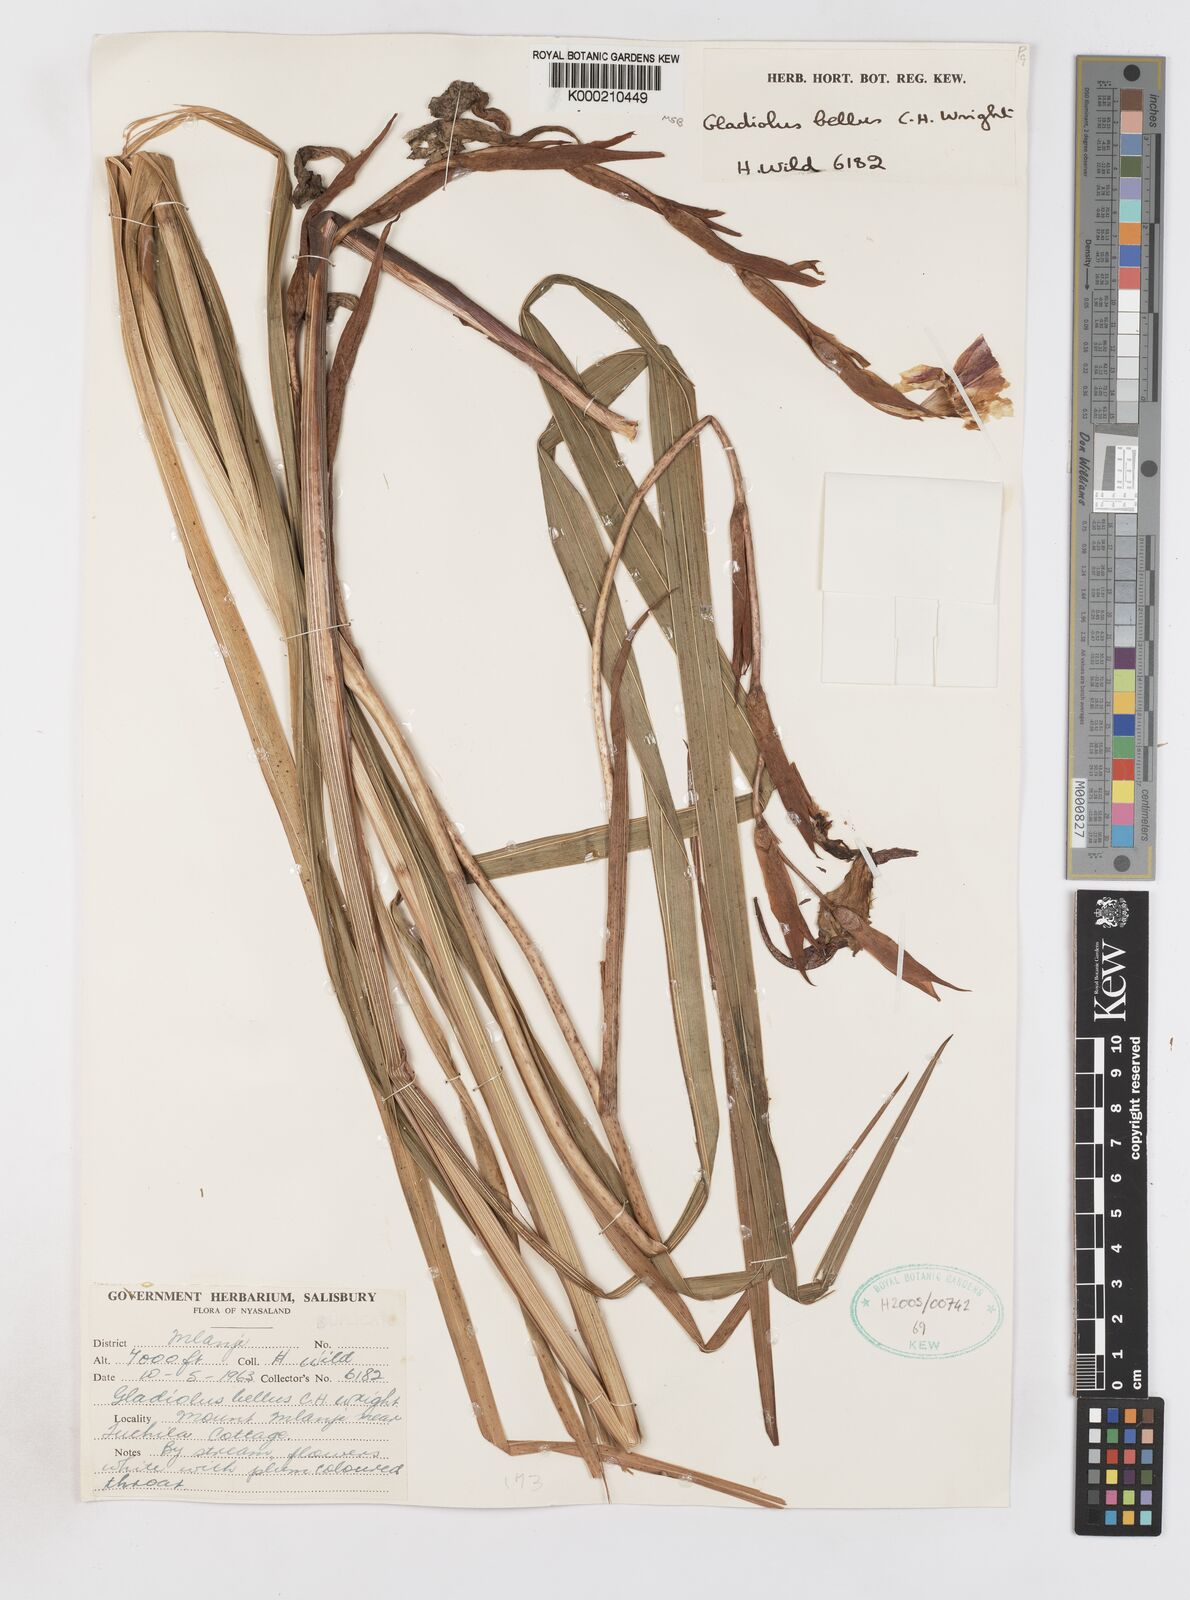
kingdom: Plantae
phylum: Tracheophyta
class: Liliopsida
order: Asparagales
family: Iridaceae
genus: Gladiolus
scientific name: Gladiolus bellus
